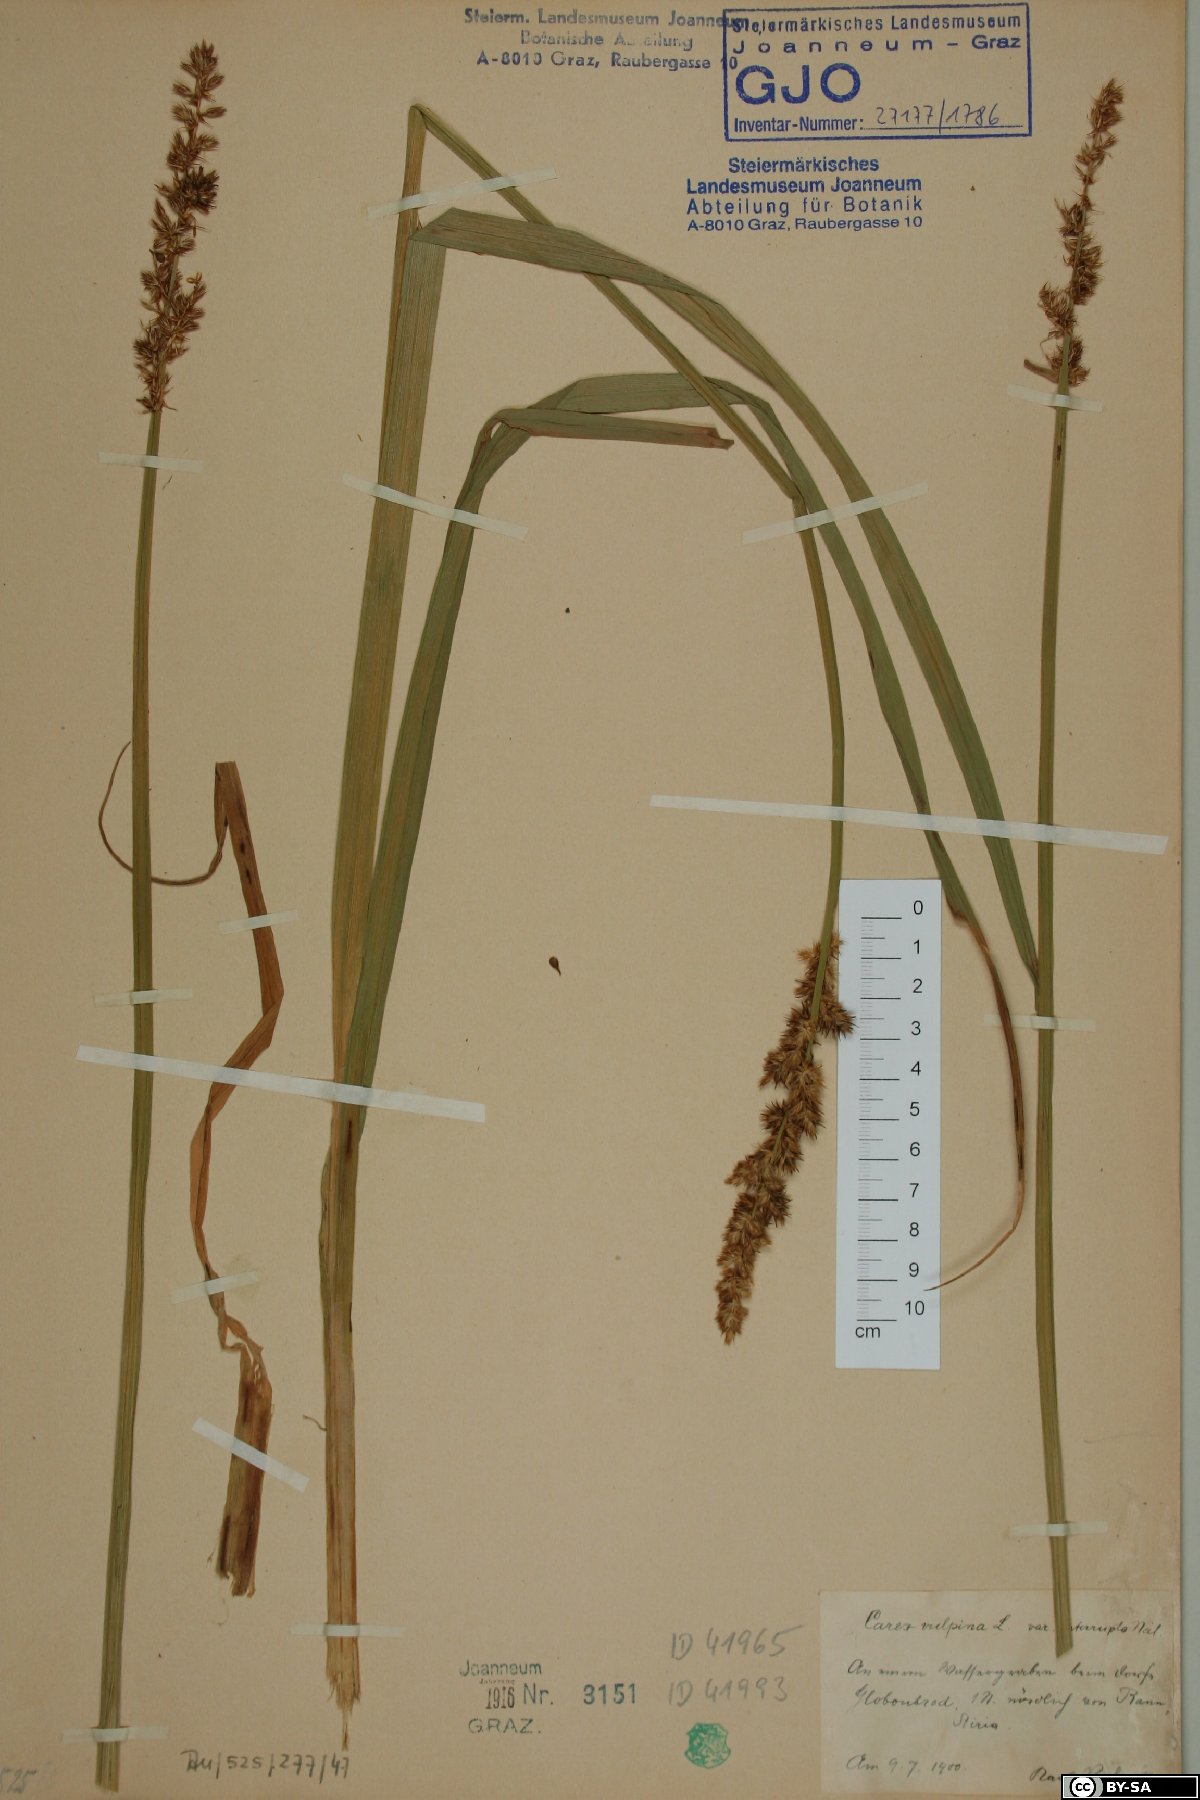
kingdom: Plantae
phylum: Tracheophyta
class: Liliopsida
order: Poales
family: Cyperaceae
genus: Carex
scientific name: Carex otrubae
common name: False fox-sedge
